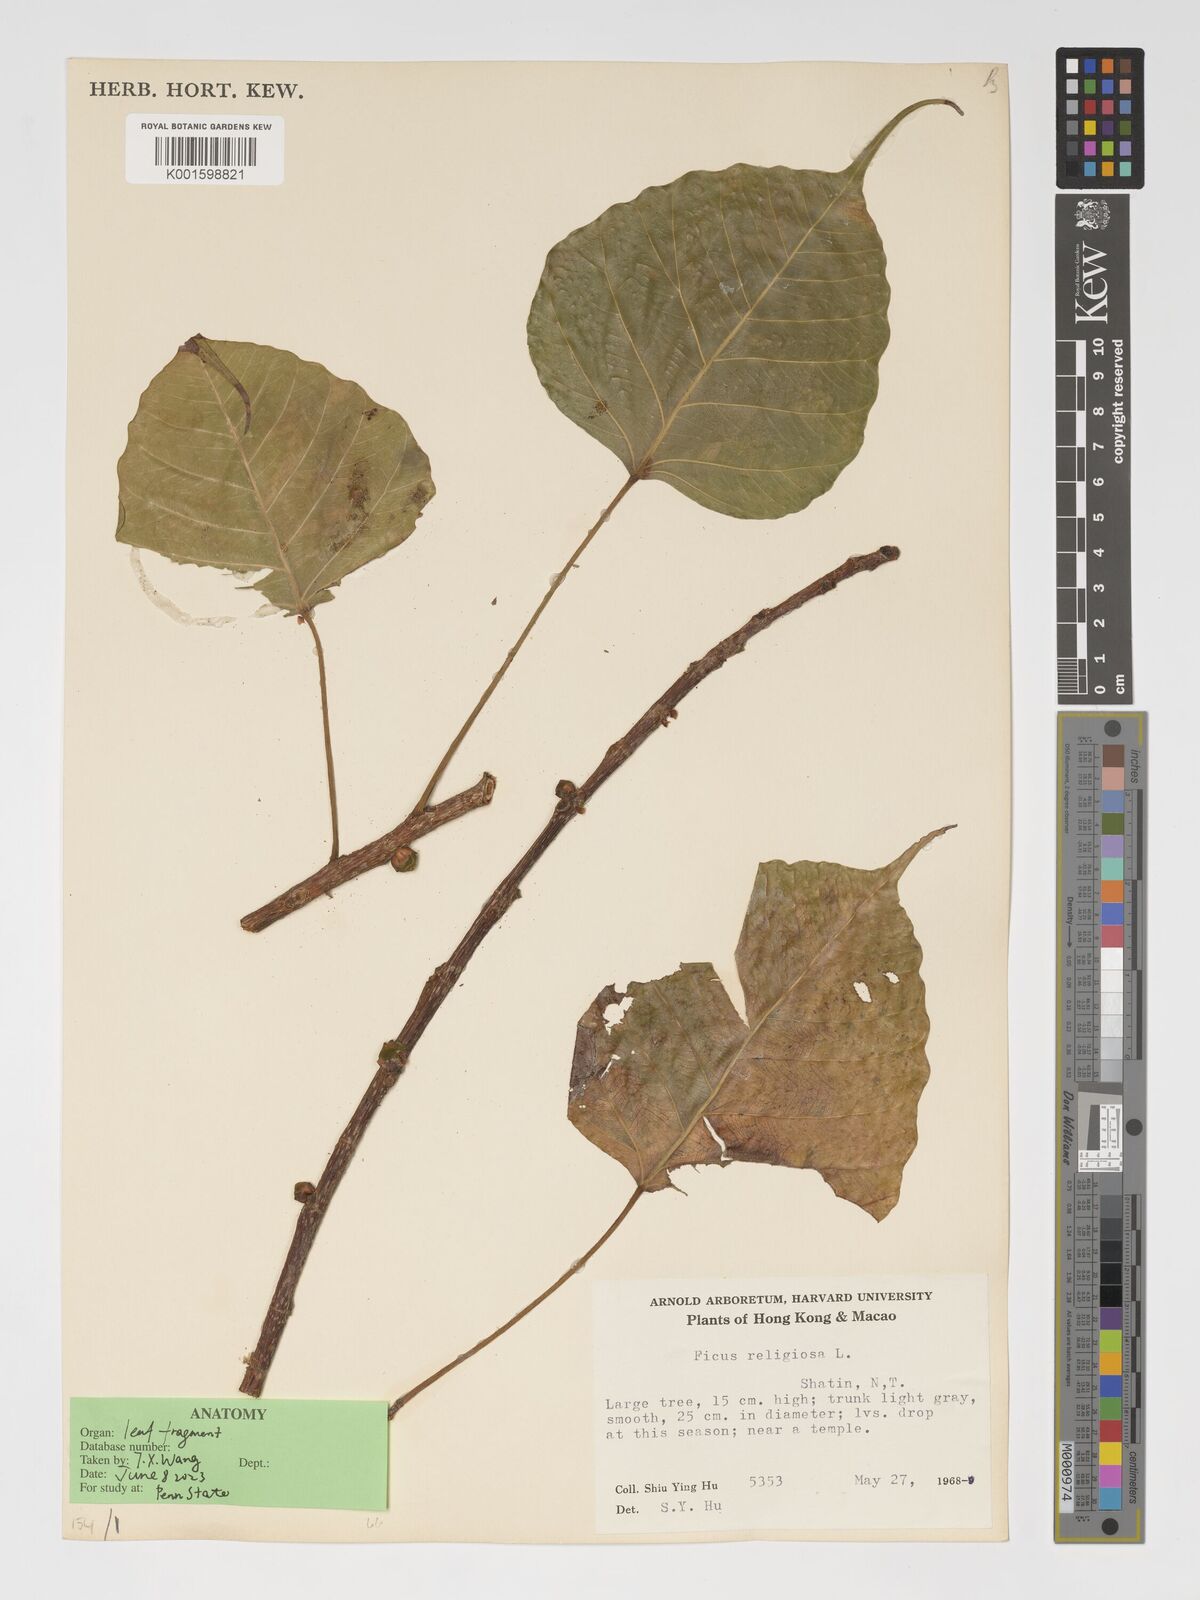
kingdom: Plantae
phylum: Tracheophyta
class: Magnoliopsida
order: Rosales
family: Moraceae
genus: Ficus
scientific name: Ficus religiosa
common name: Bodhi tree
